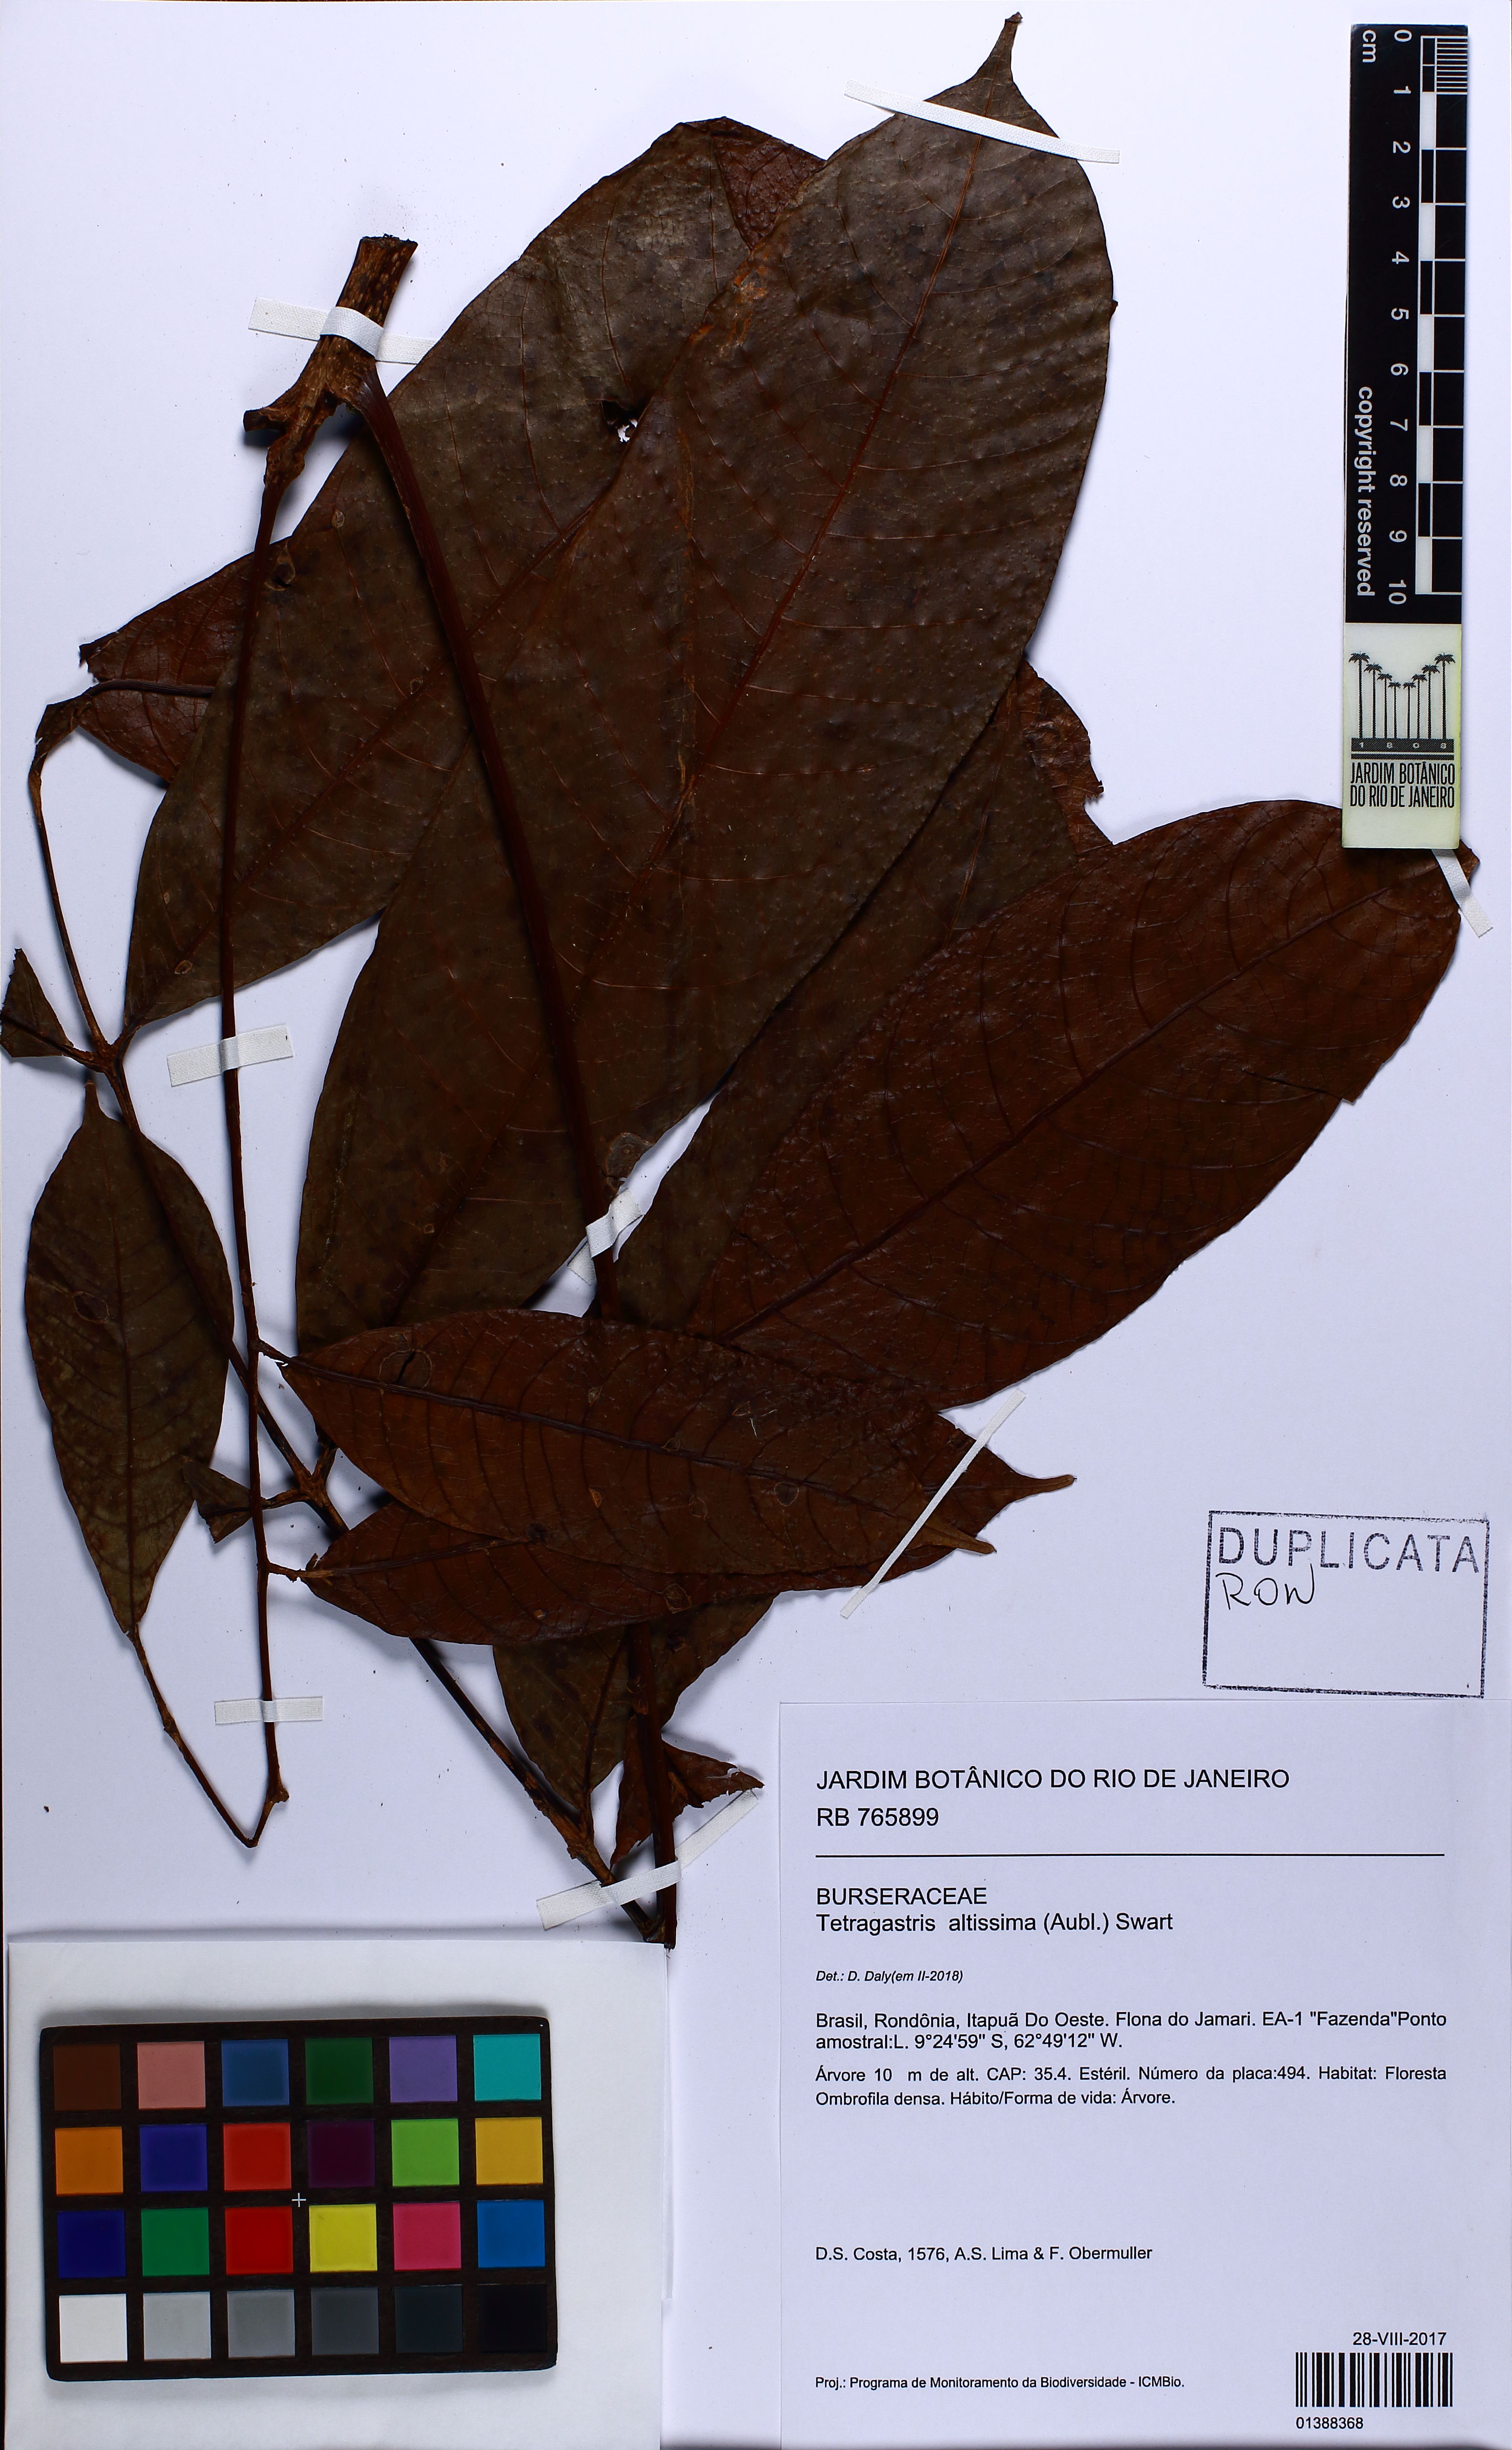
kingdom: Plantae
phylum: Tracheophyta
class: Magnoliopsida
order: Sapindales
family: Burseraceae
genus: Protium
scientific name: Protium acrense
